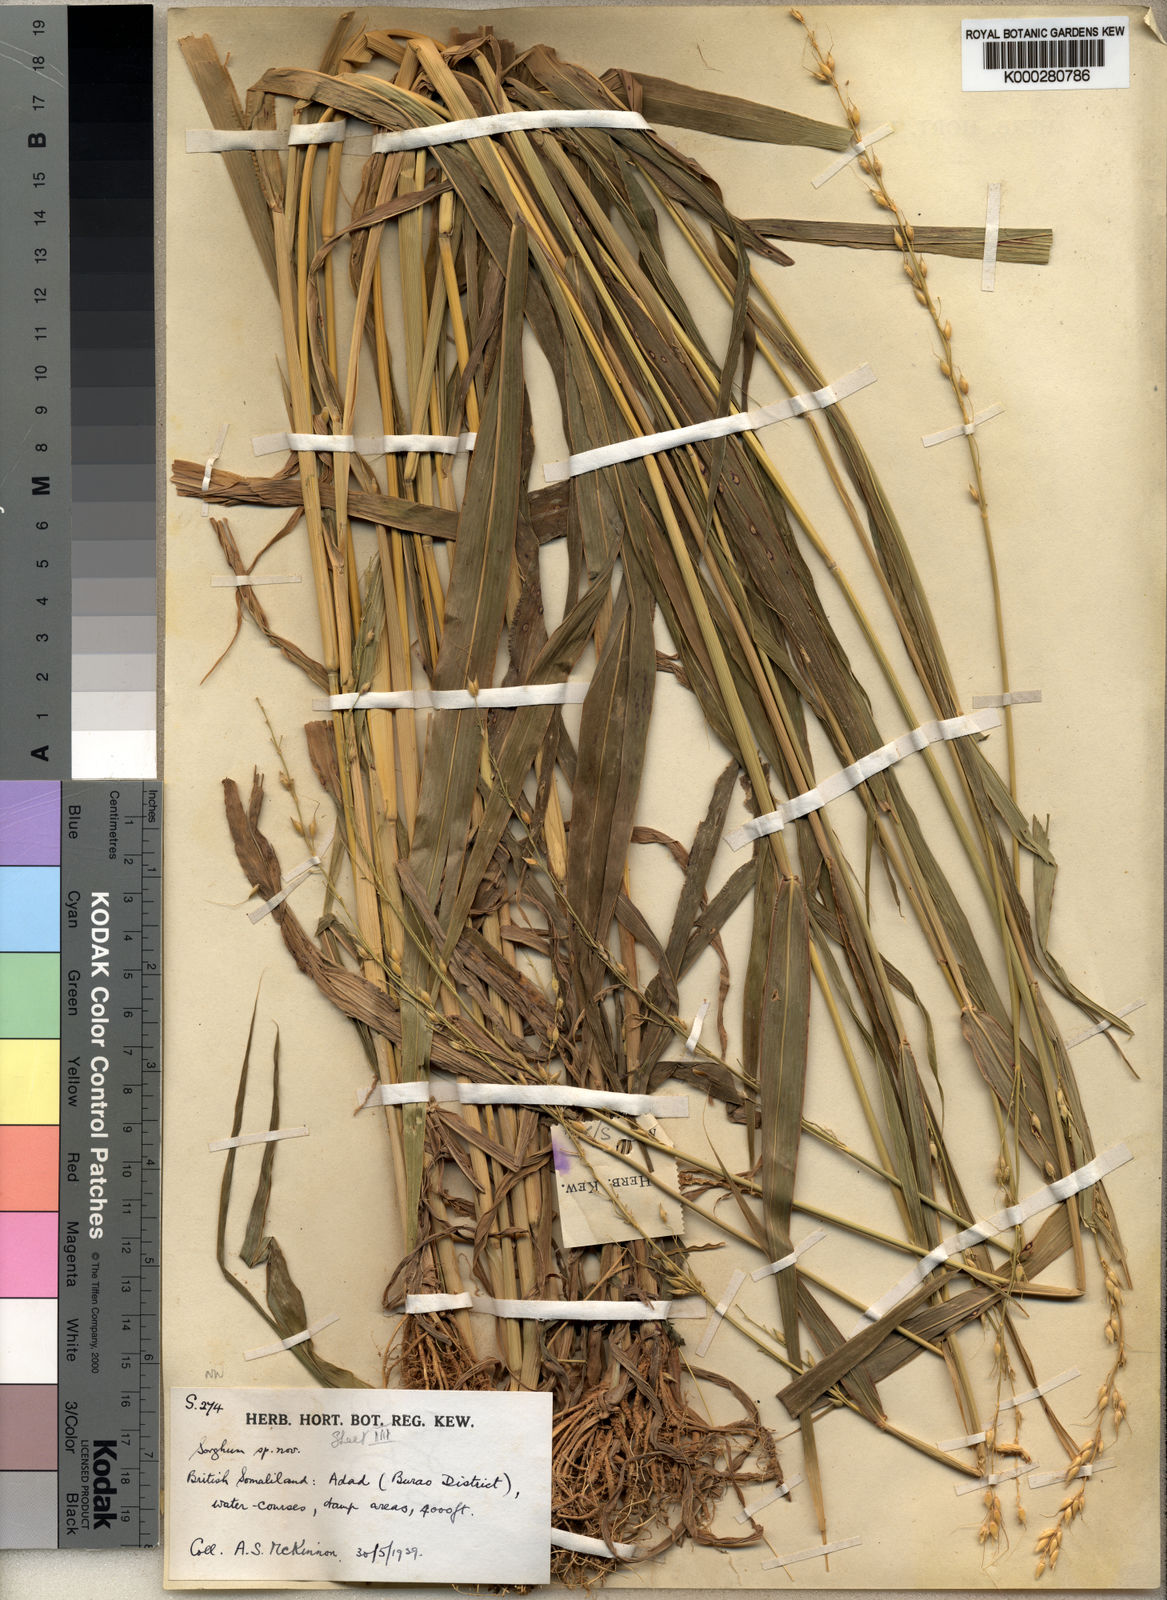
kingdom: Plantae
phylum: Tracheophyta
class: Liliopsida
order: Poales
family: Poaceae
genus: Sorghum
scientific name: Sorghum arundinaceum
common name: Sorghum
